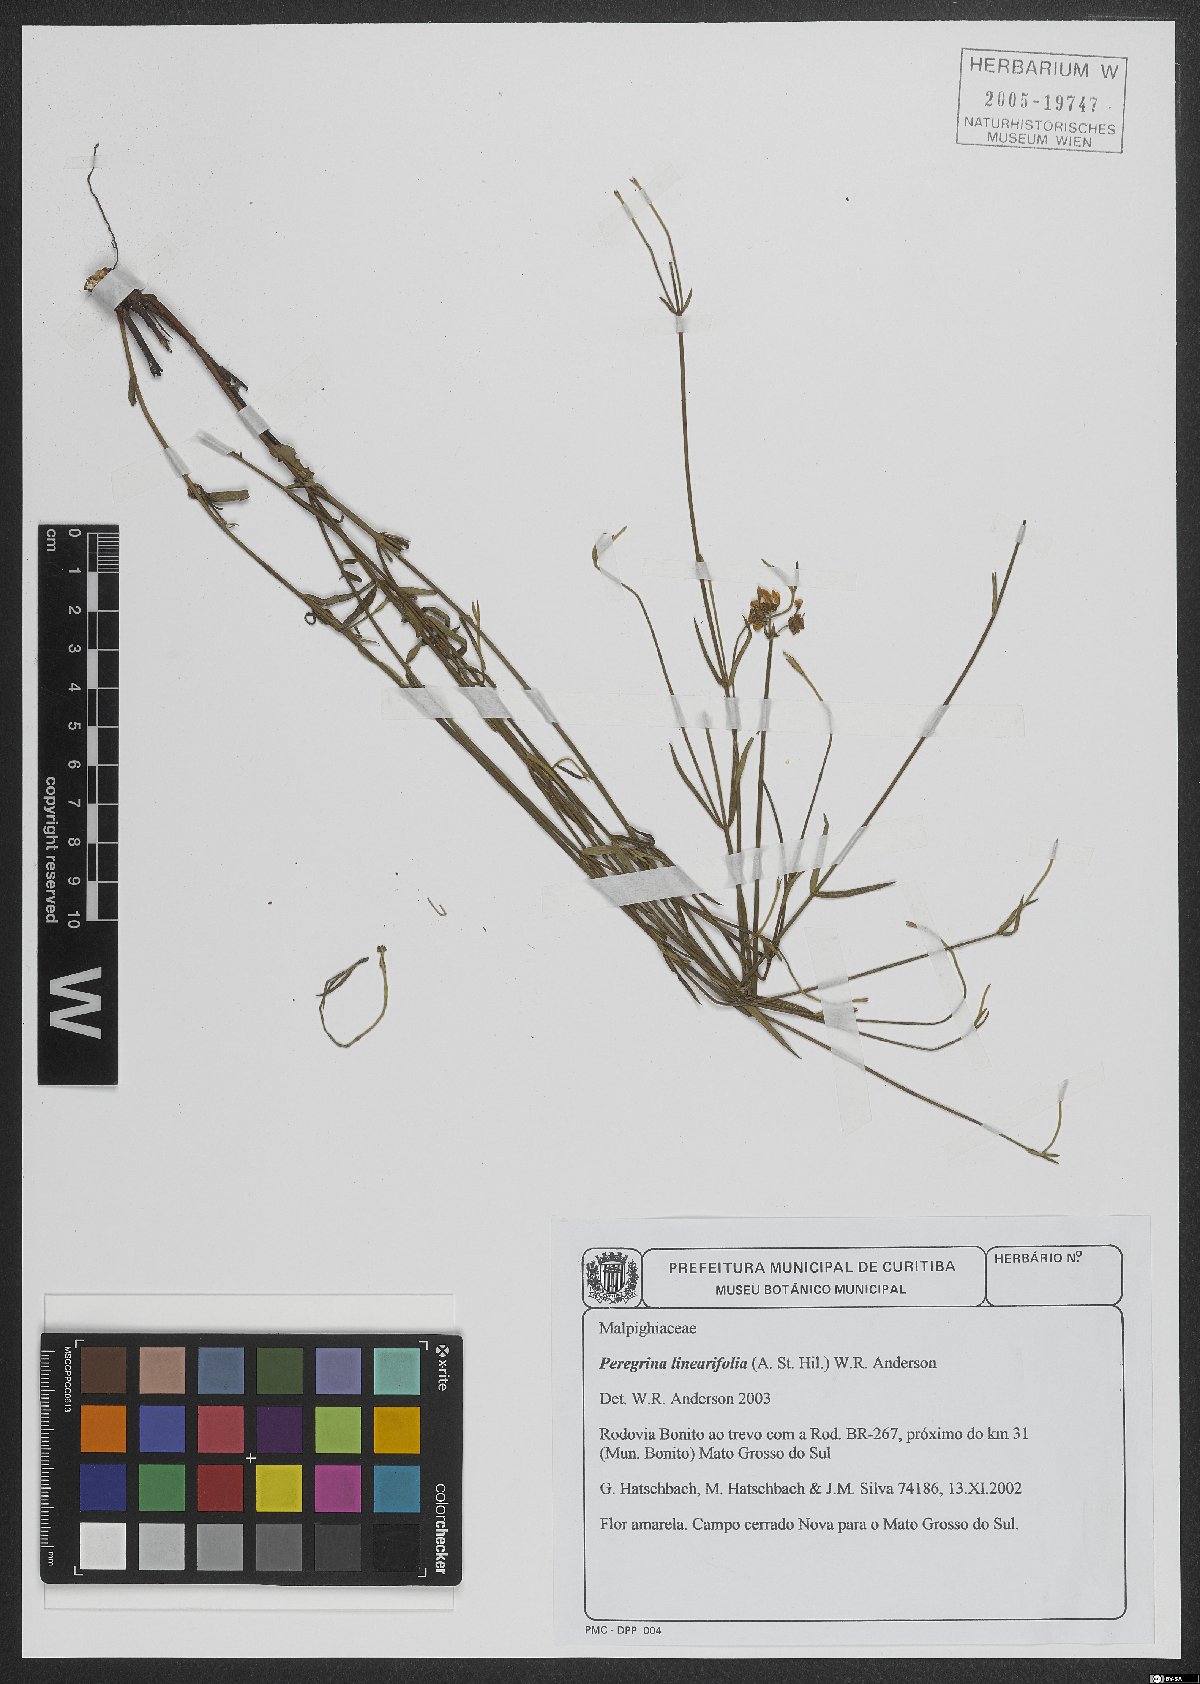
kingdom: Plantae
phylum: Tracheophyta
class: Magnoliopsida
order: Malpighiales
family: Malpighiaceae
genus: Peregrina
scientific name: Peregrina linearifolia
